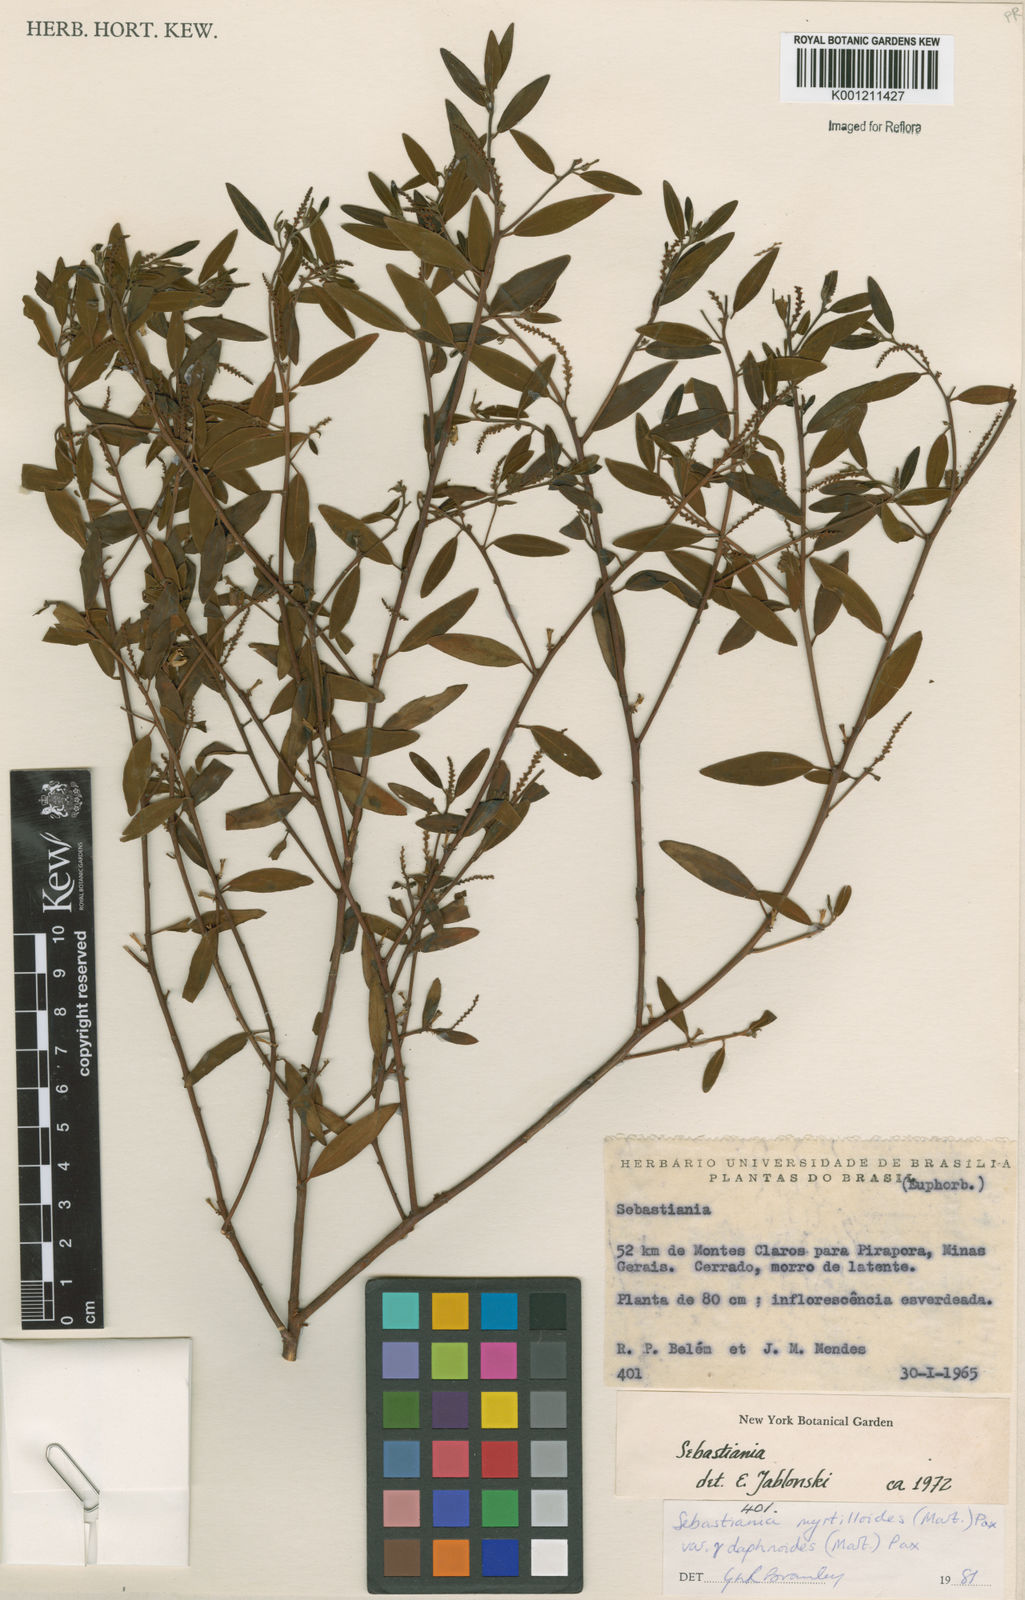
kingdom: Plantae
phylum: Tracheophyta
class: Magnoliopsida
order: Malpighiales
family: Euphorbiaceae
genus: Microstachys
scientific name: Microstachys
